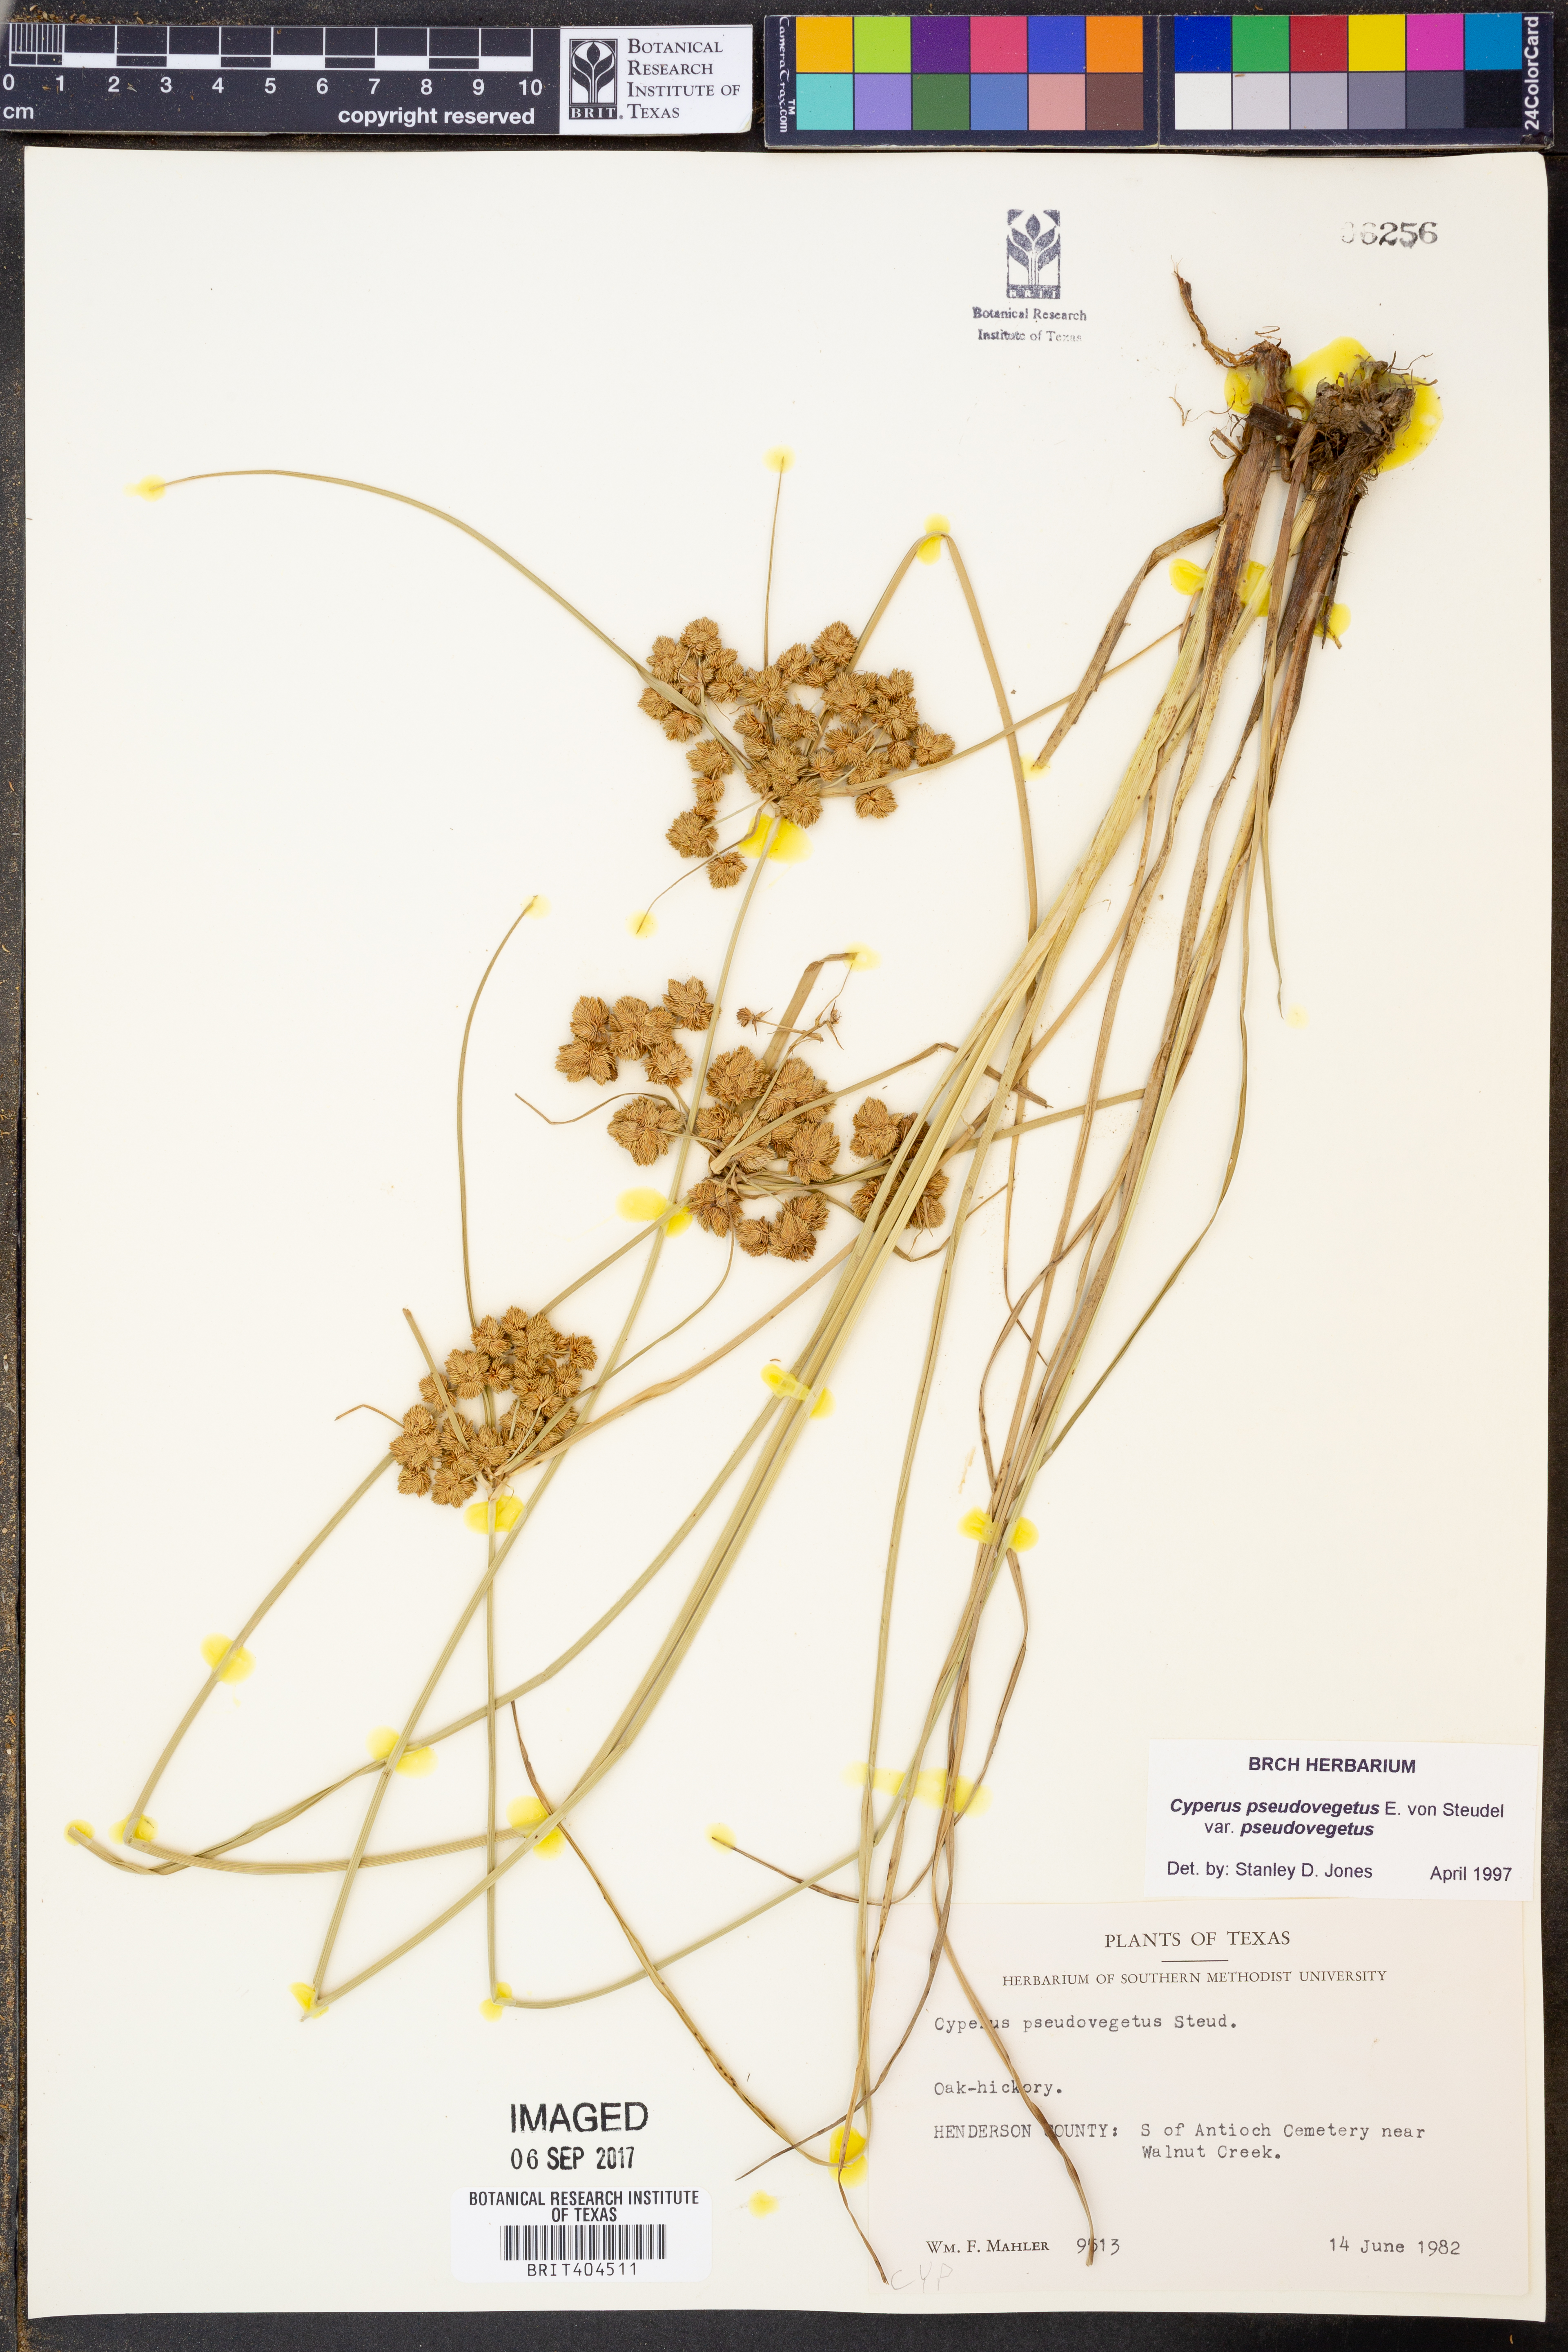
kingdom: Plantae
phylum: Tracheophyta
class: Liliopsida
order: Poales
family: Cyperaceae
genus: Cyperus
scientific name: Cyperus pseudovegetus
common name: Marsh flat sedge
